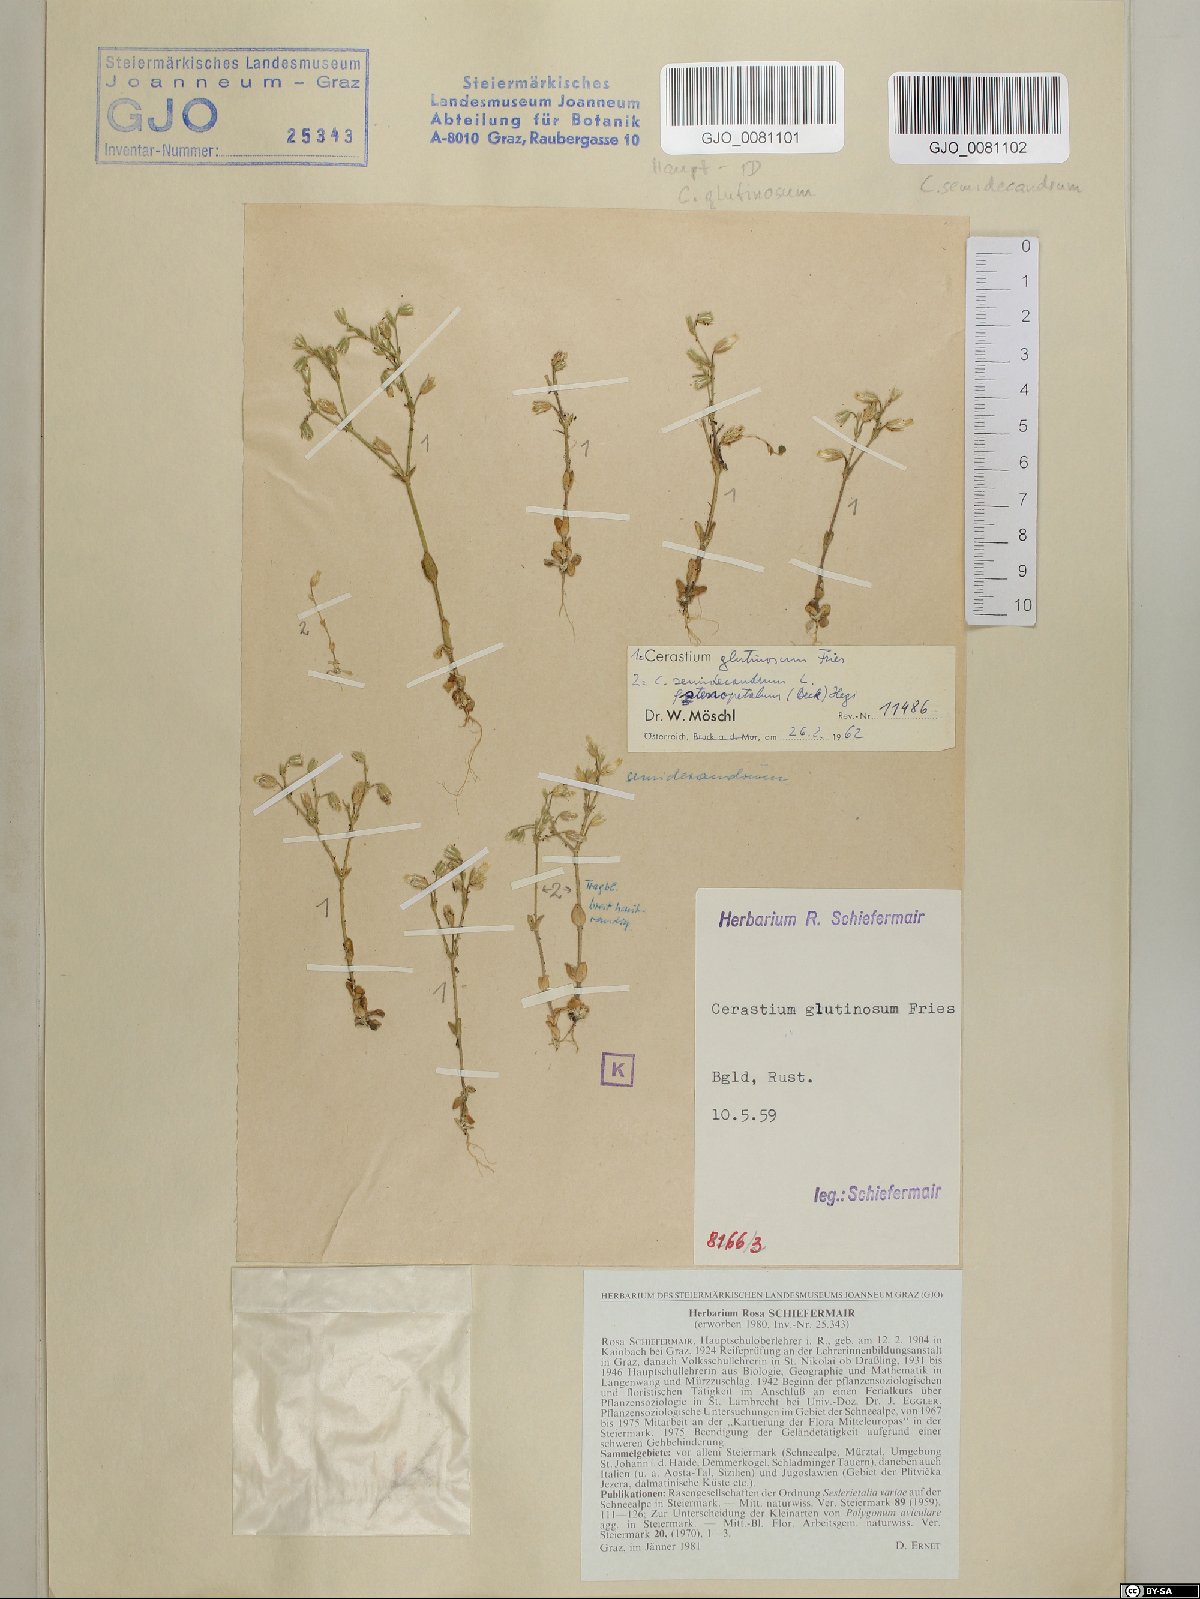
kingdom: Plantae
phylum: Tracheophyta
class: Magnoliopsida
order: Caryophyllales
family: Caryophyllaceae
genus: Cerastium
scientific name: Cerastium semidecandrum
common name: Little mouse-ear
